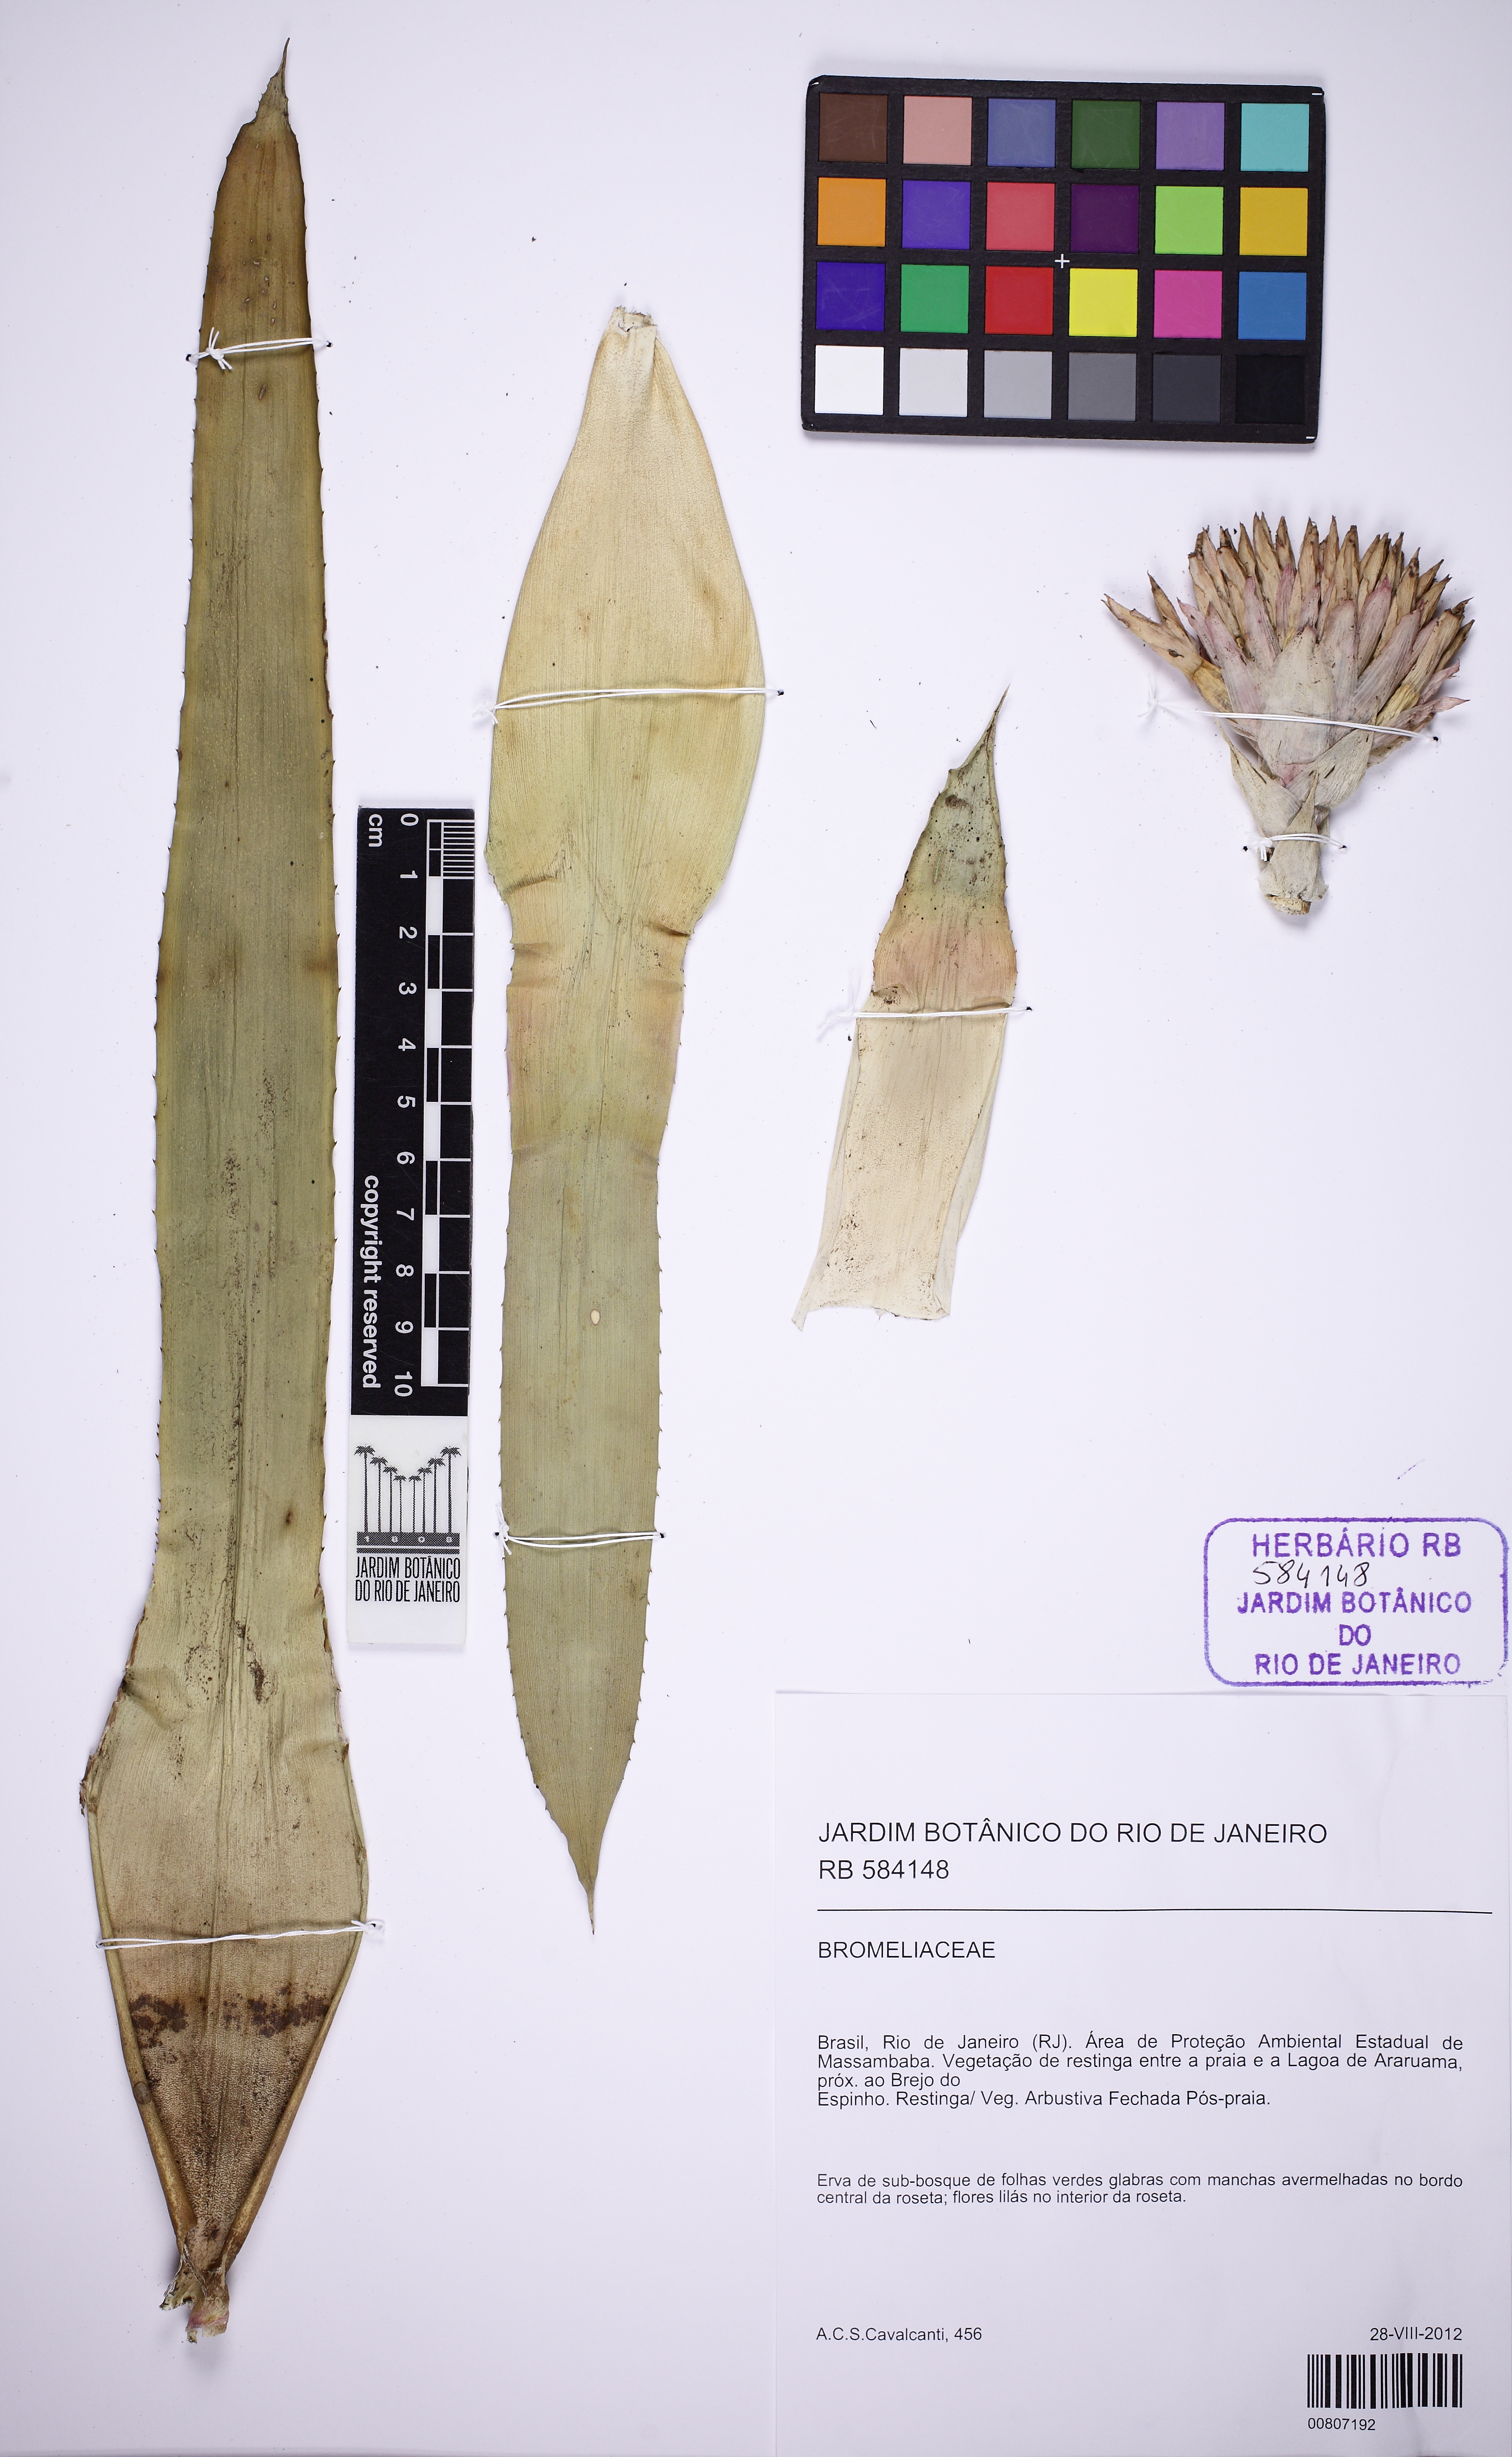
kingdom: Plantae
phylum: Tracheophyta
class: Liliopsida
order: Poales
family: Bromeliaceae
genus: Neoregelia
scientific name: Neoregelia cruenta
